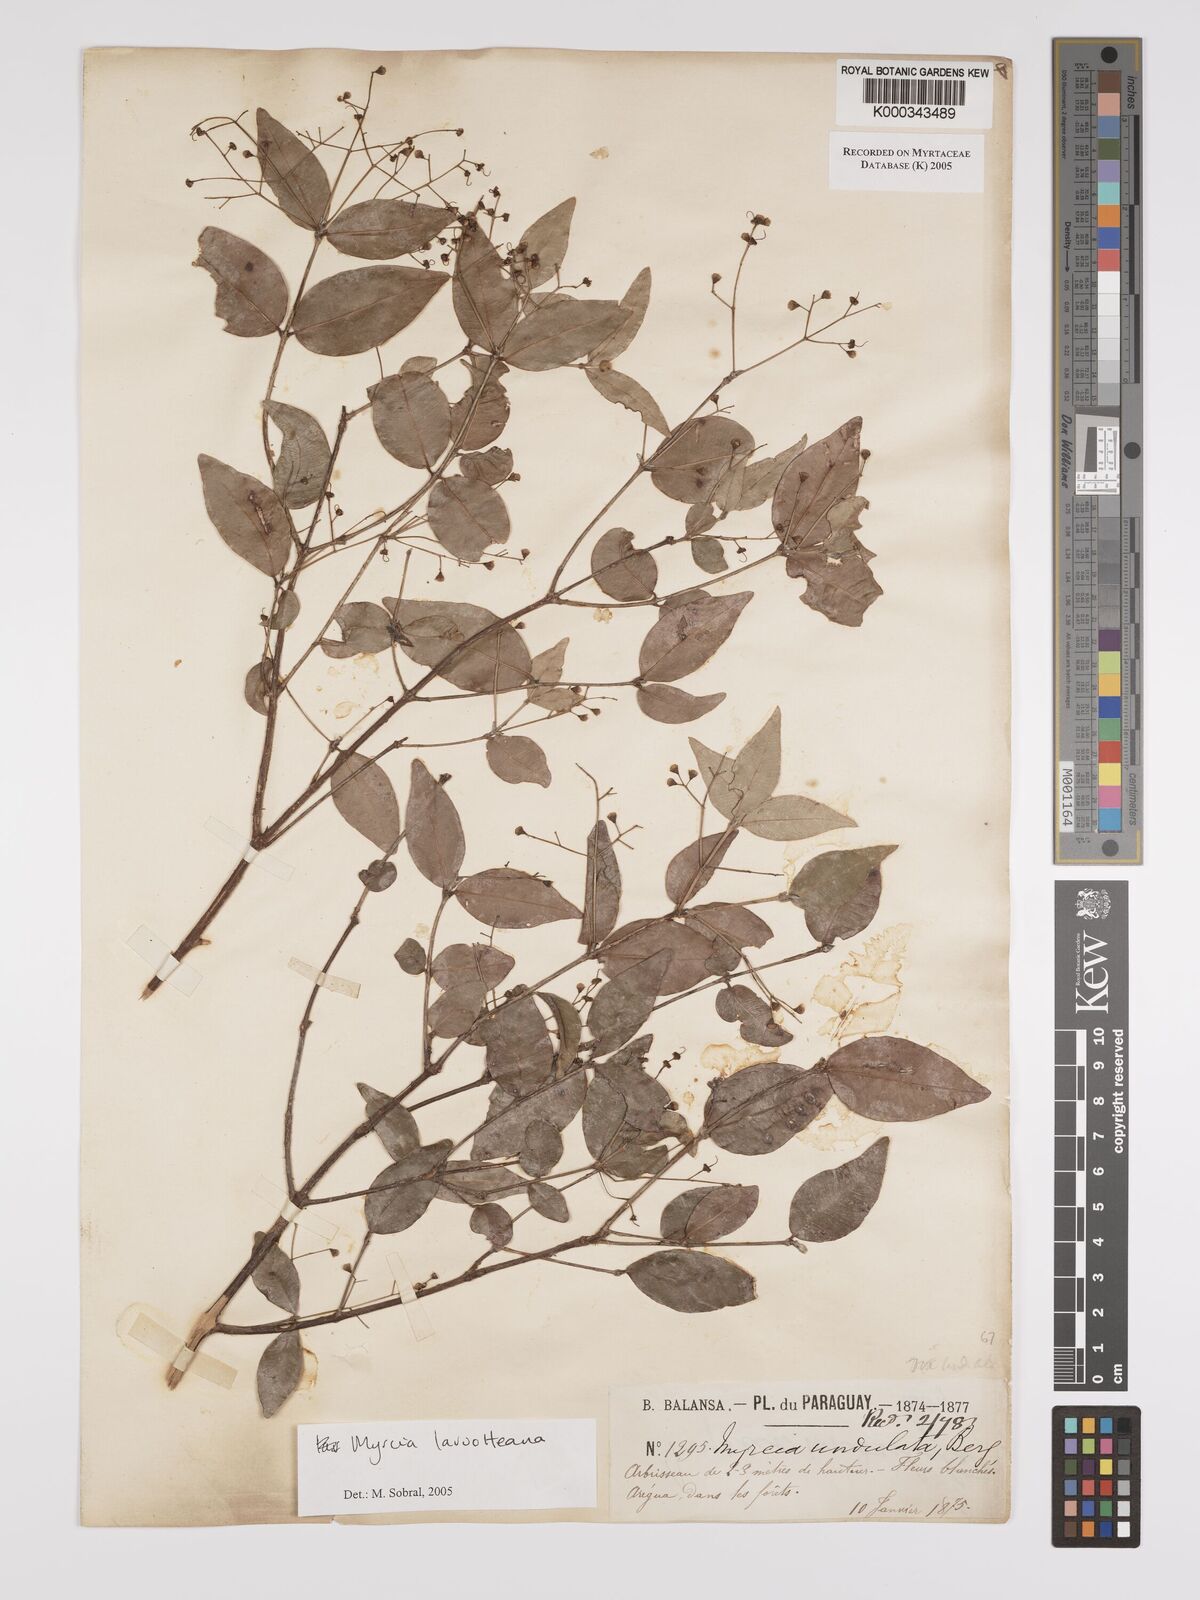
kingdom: Plantae
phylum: Tracheophyta
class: Magnoliopsida
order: Myrtales
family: Myrtaceae
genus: Myrcia
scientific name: Myrcia laruotteana
